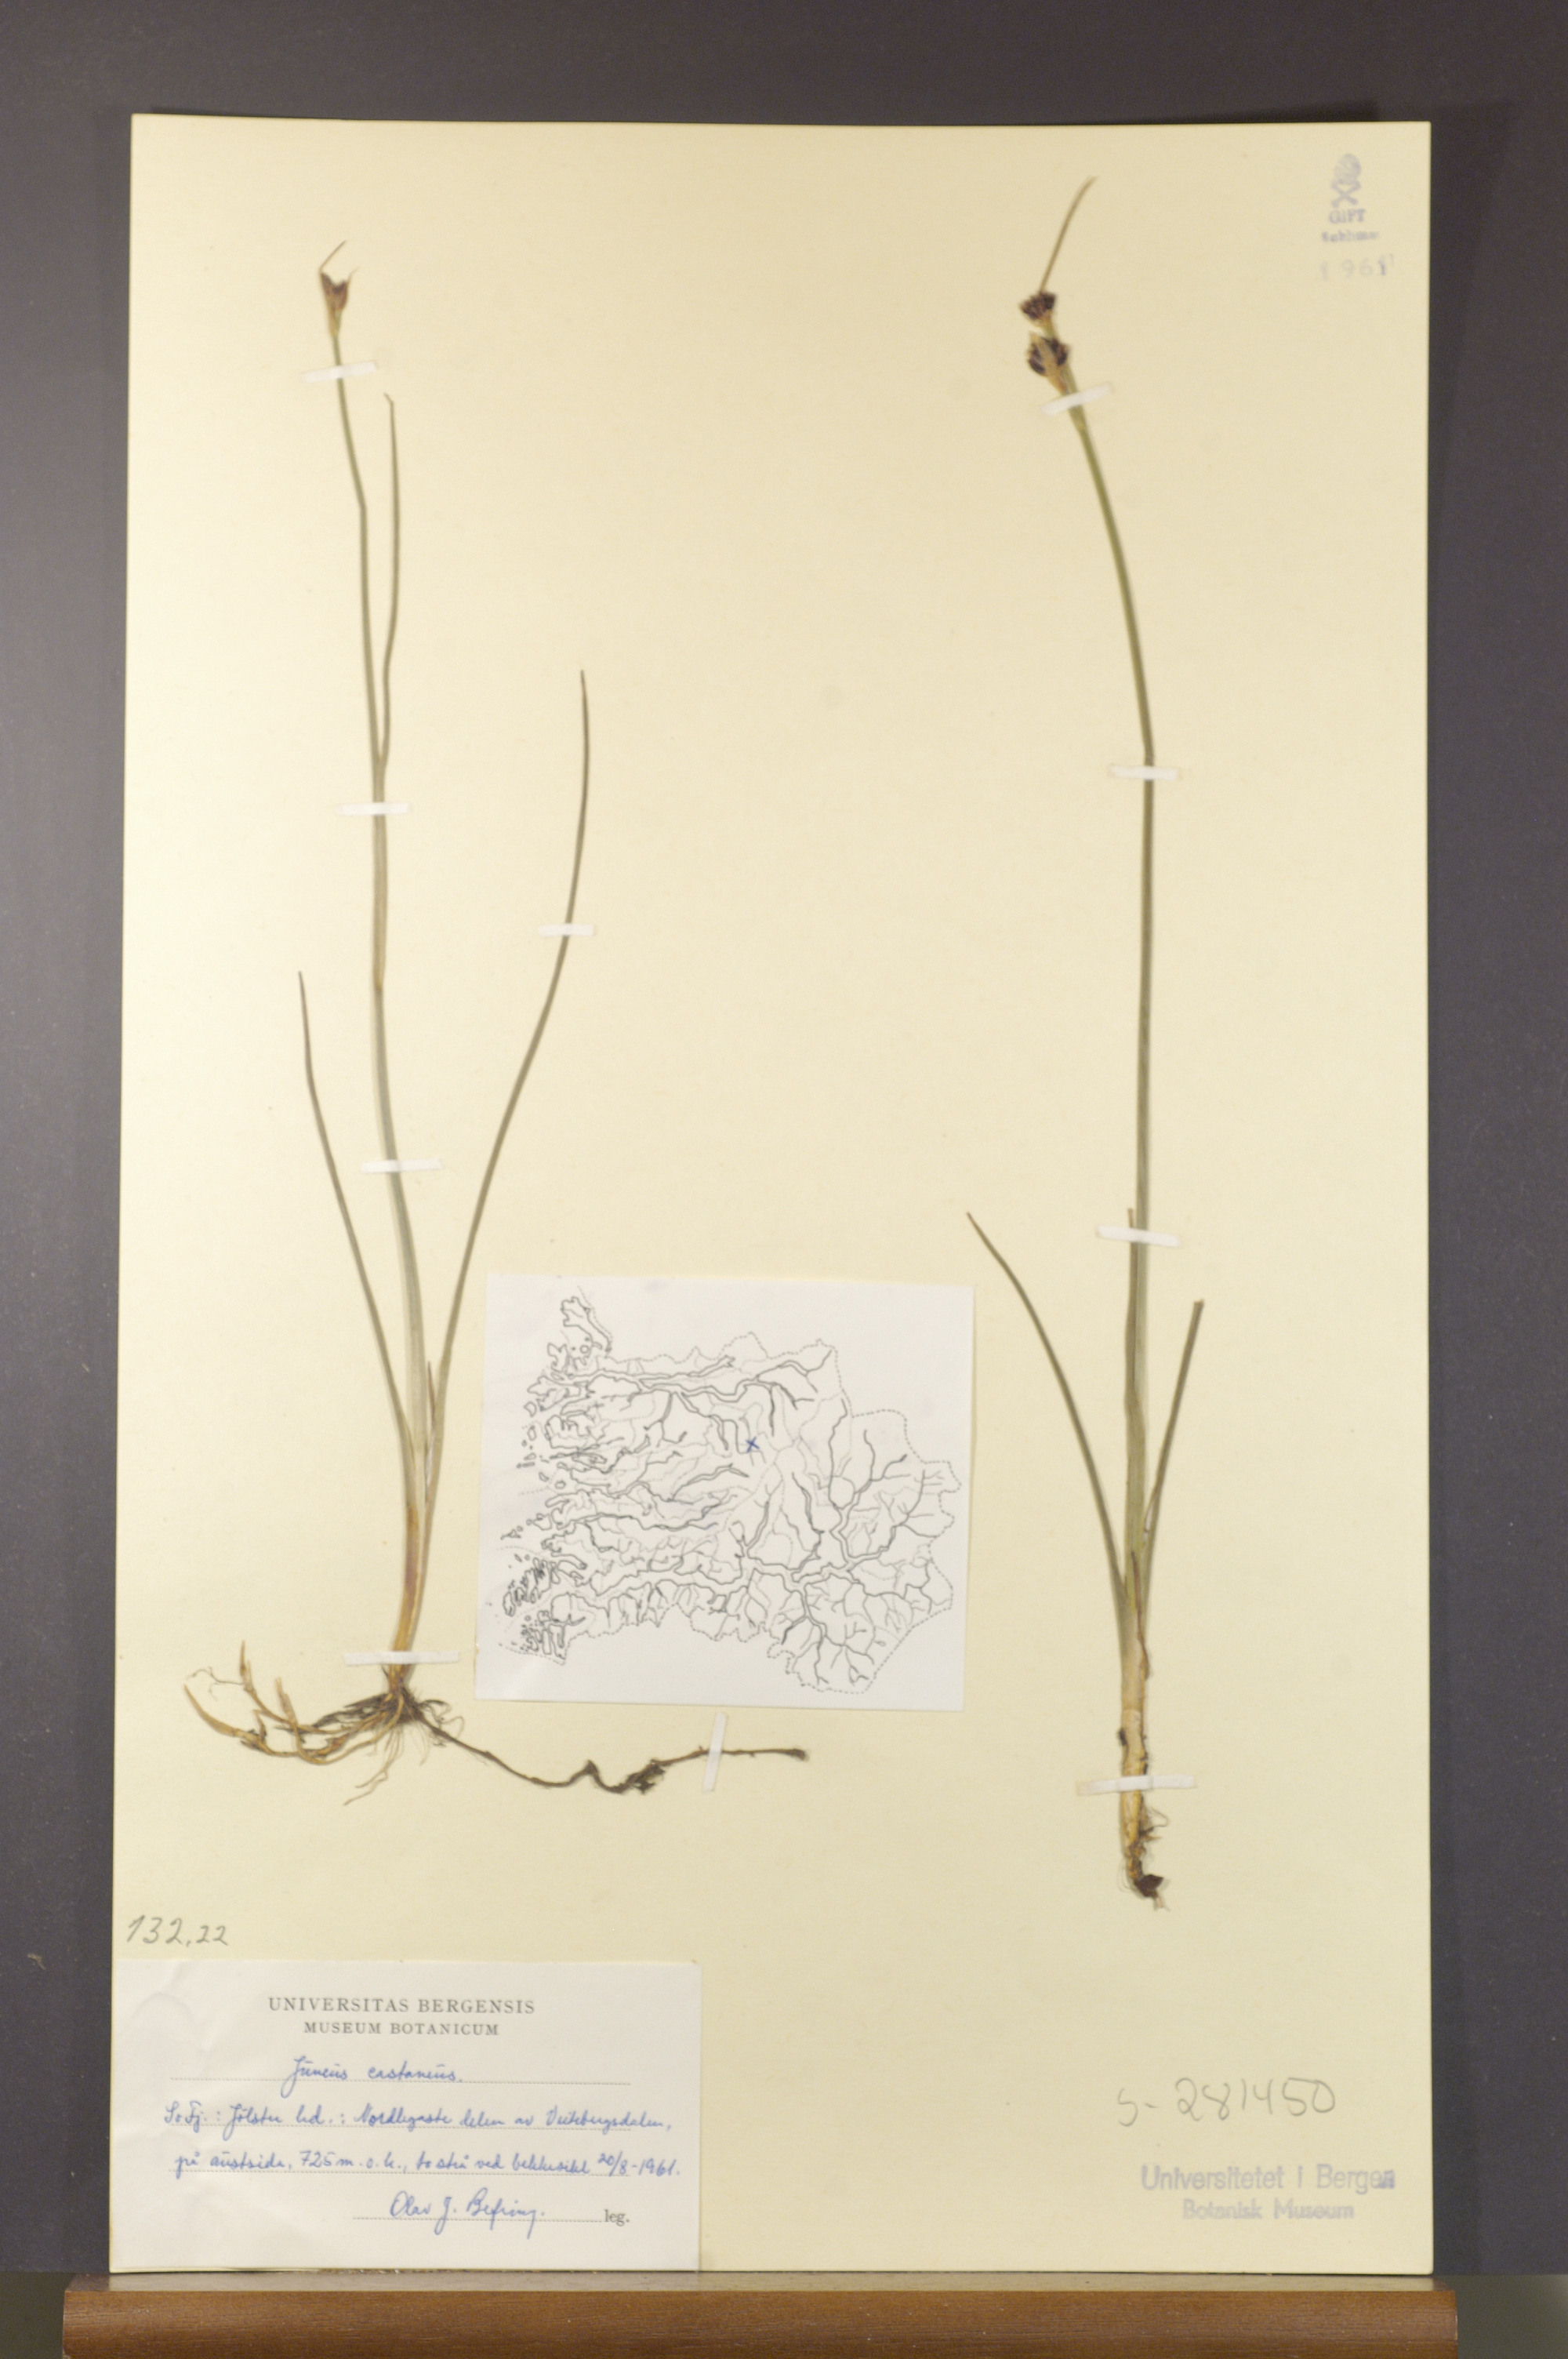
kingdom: Plantae
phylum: Tracheophyta
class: Liliopsida
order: Poales
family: Juncaceae
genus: Juncus
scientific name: Juncus castaneus
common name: Chestnut rush
